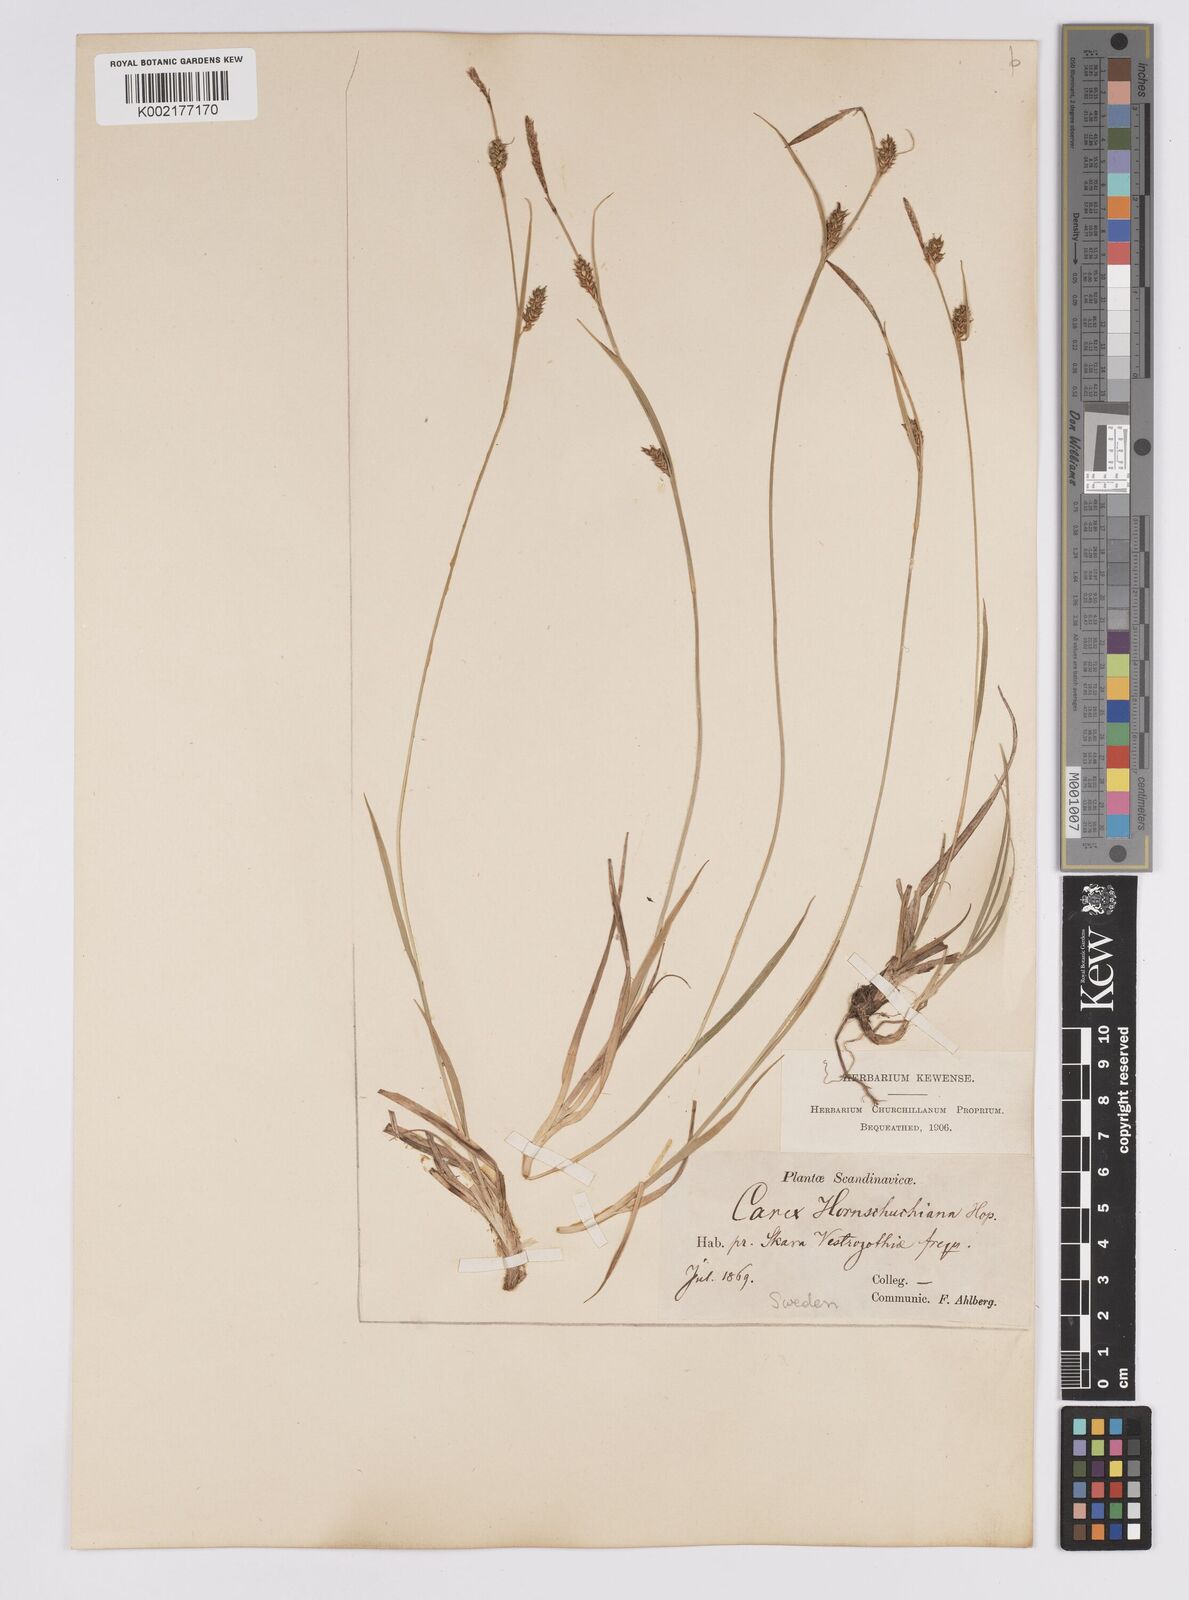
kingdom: Plantae
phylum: Tracheophyta
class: Liliopsida
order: Poales
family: Cyperaceae
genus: Carex
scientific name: Carex hostiana
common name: Tawny sedge
